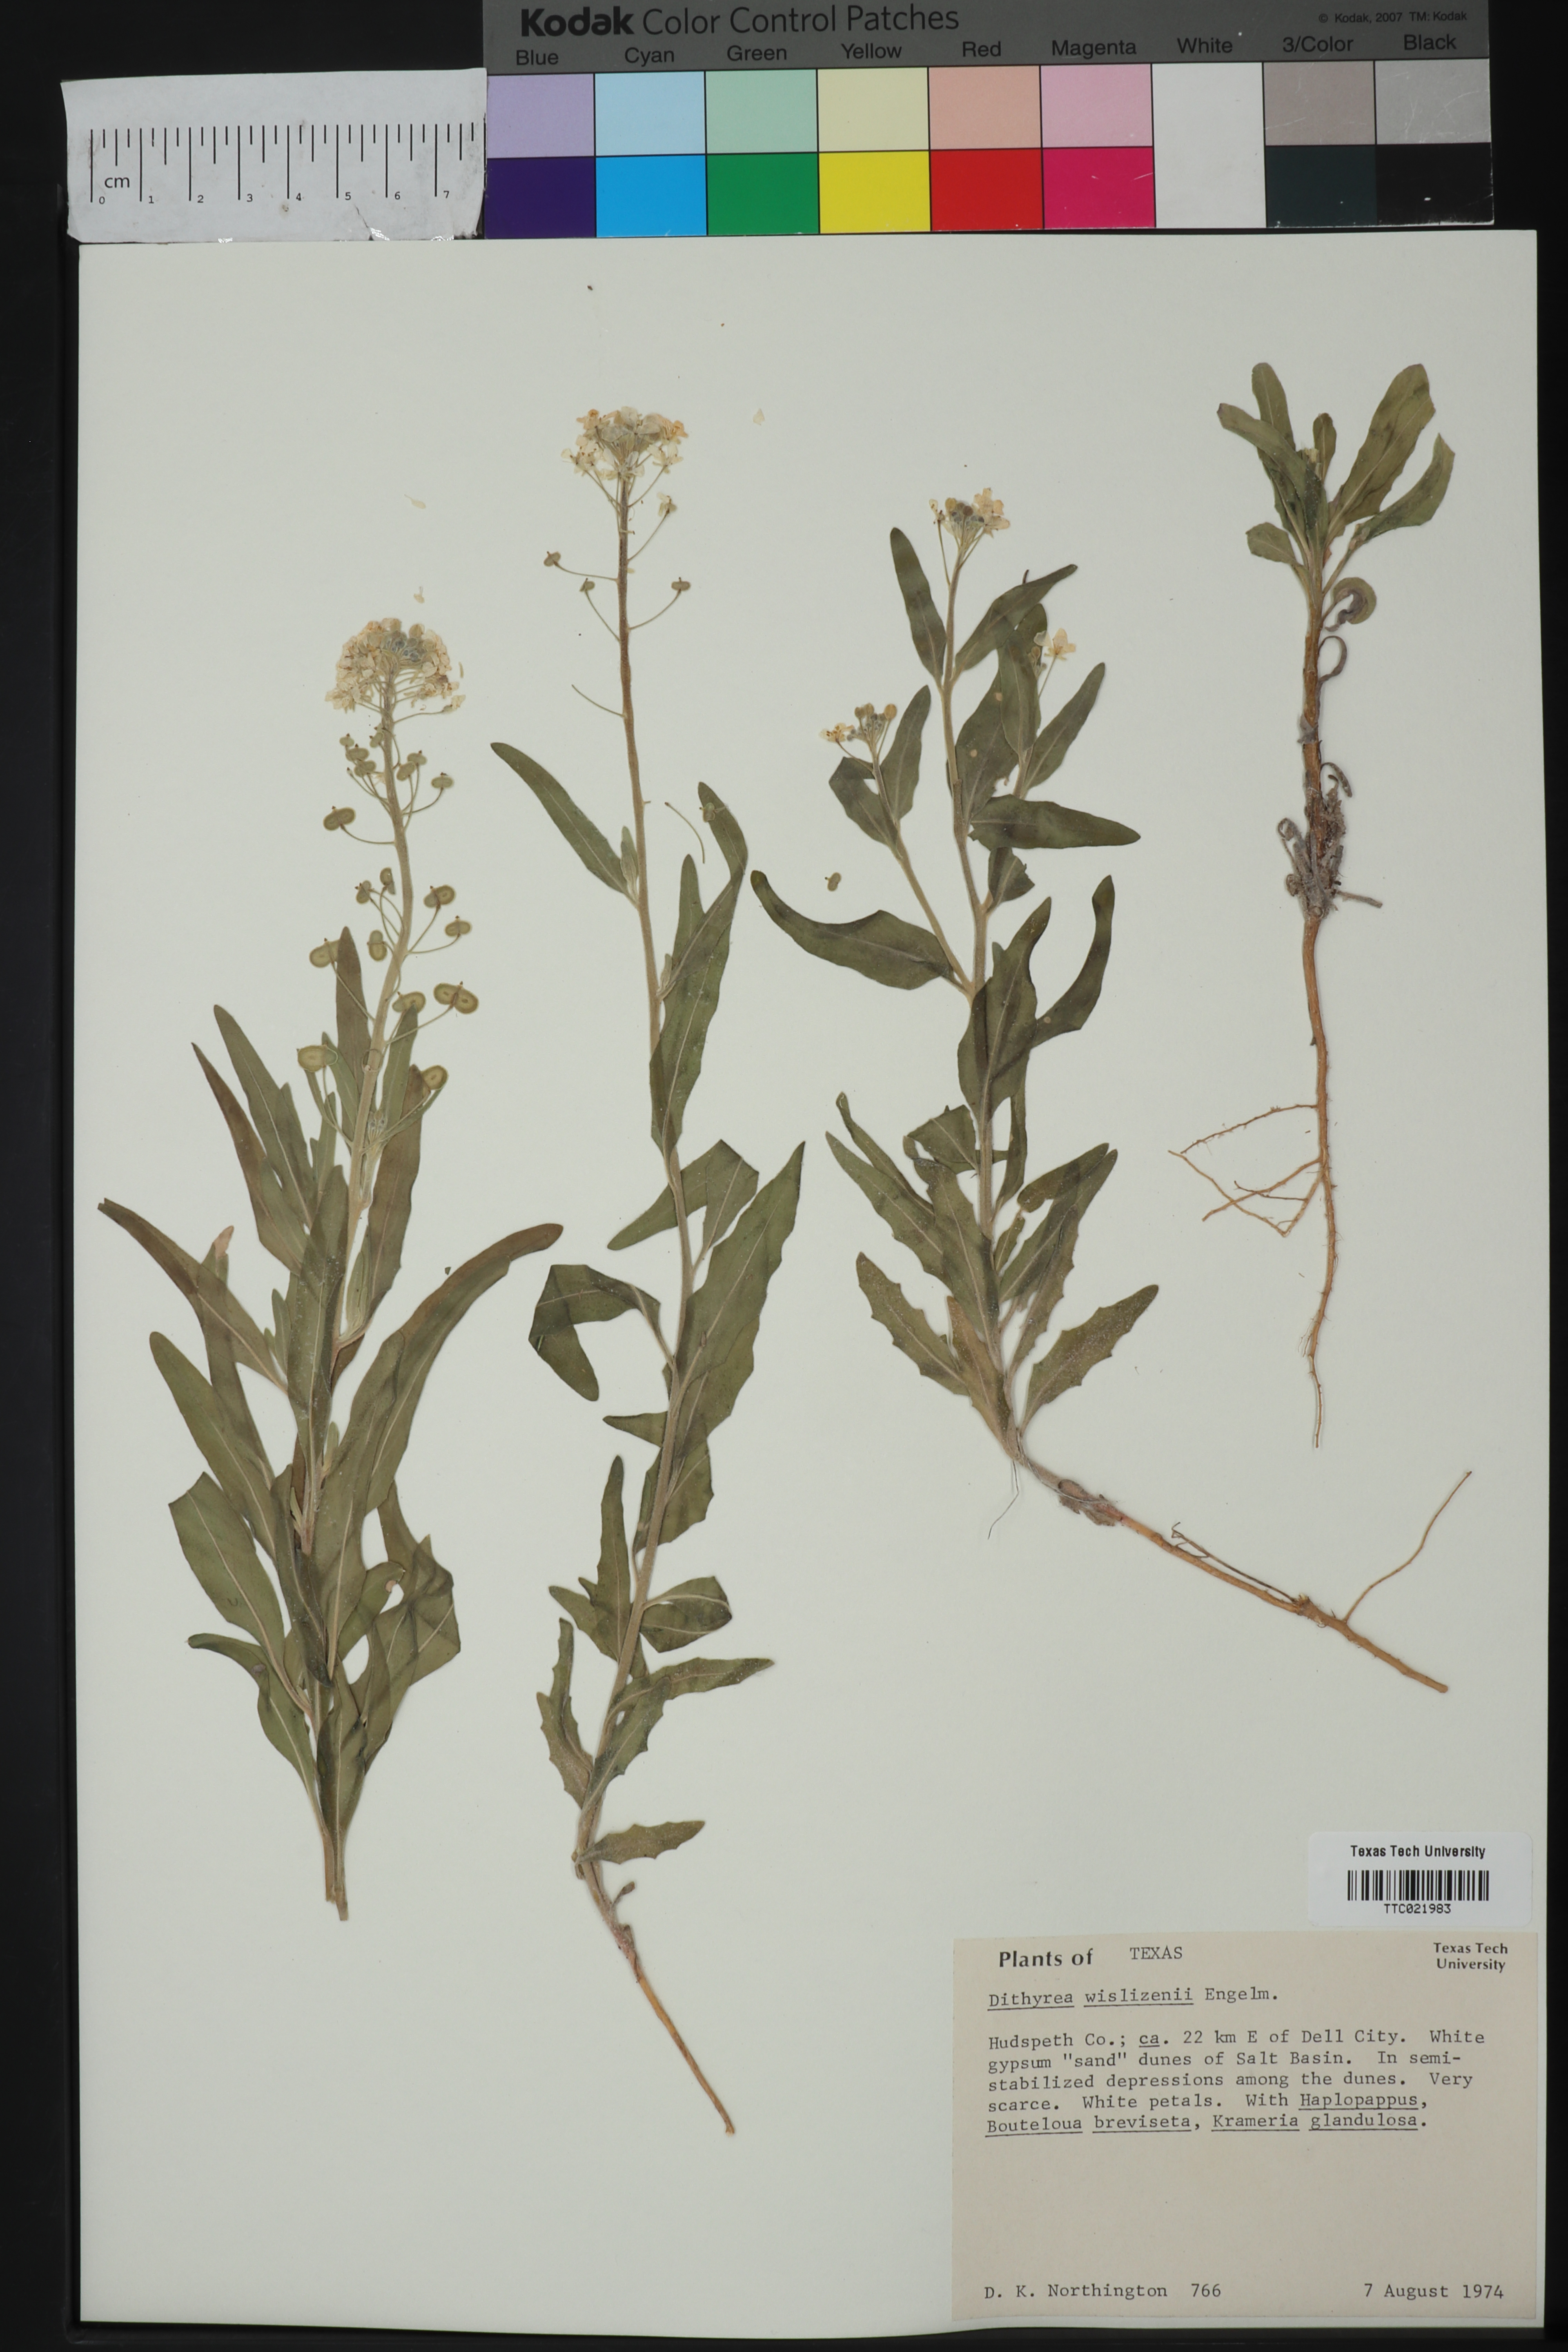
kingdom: Plantae
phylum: Tracheophyta
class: Magnoliopsida
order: Brassicales
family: Brassicaceae
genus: Dimorphocarpa
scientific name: Dimorphocarpa wislizenii
